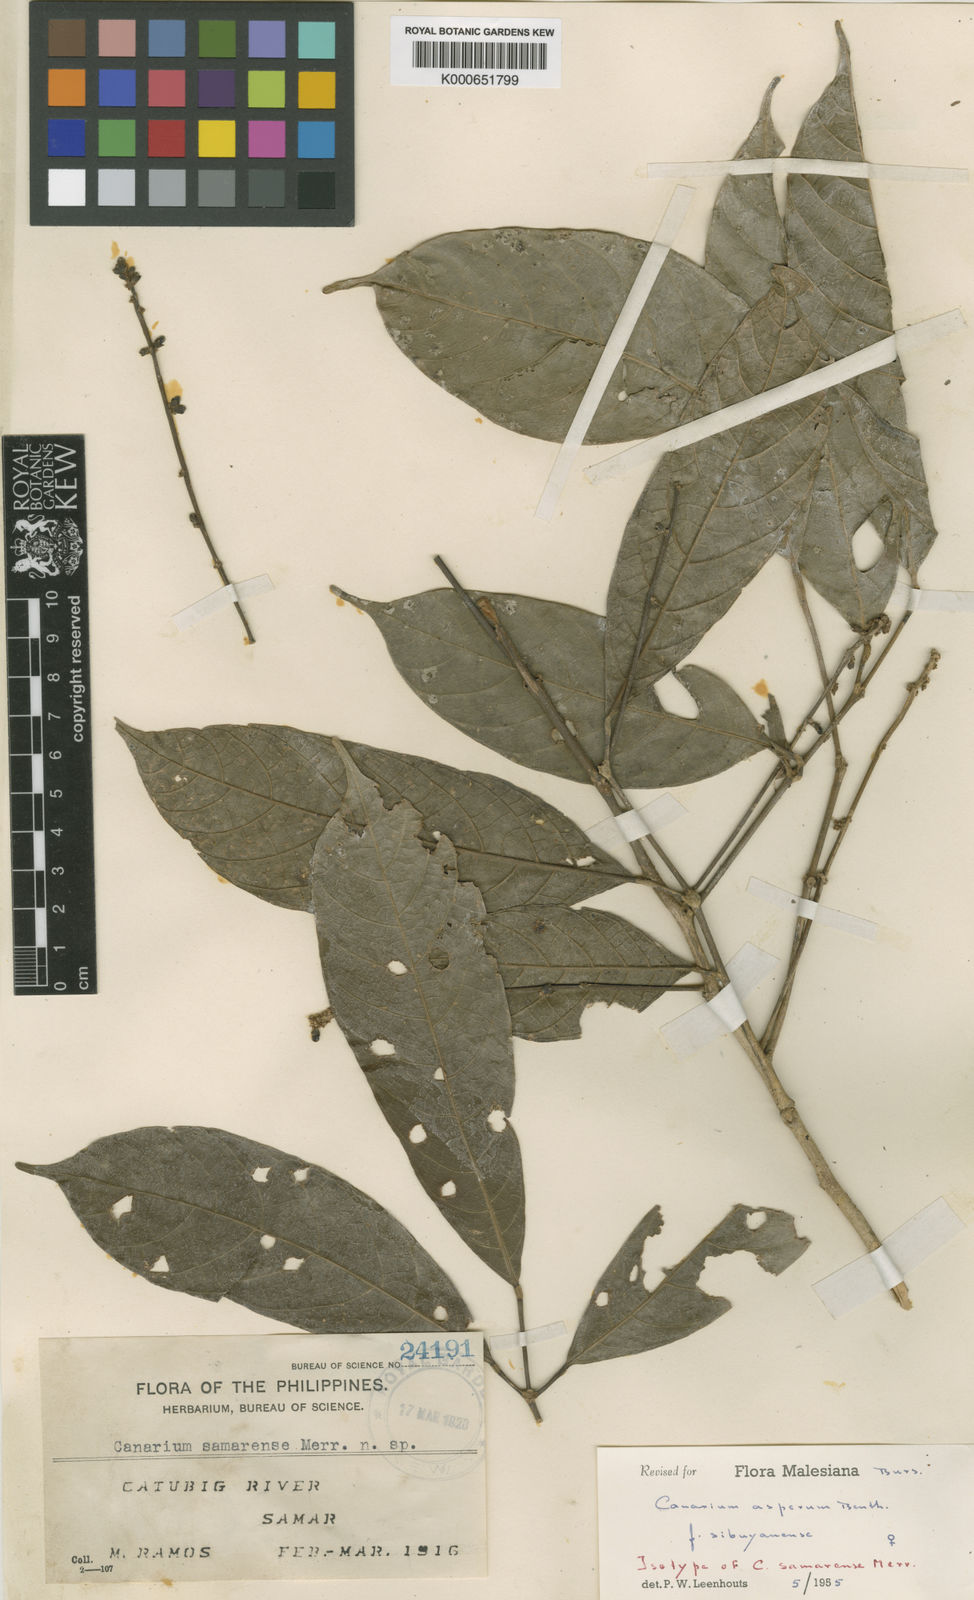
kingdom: Plantae
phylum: Tracheophyta
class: Magnoliopsida
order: Sapindales
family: Burseraceae
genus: Canarium
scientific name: Canarium asperum
